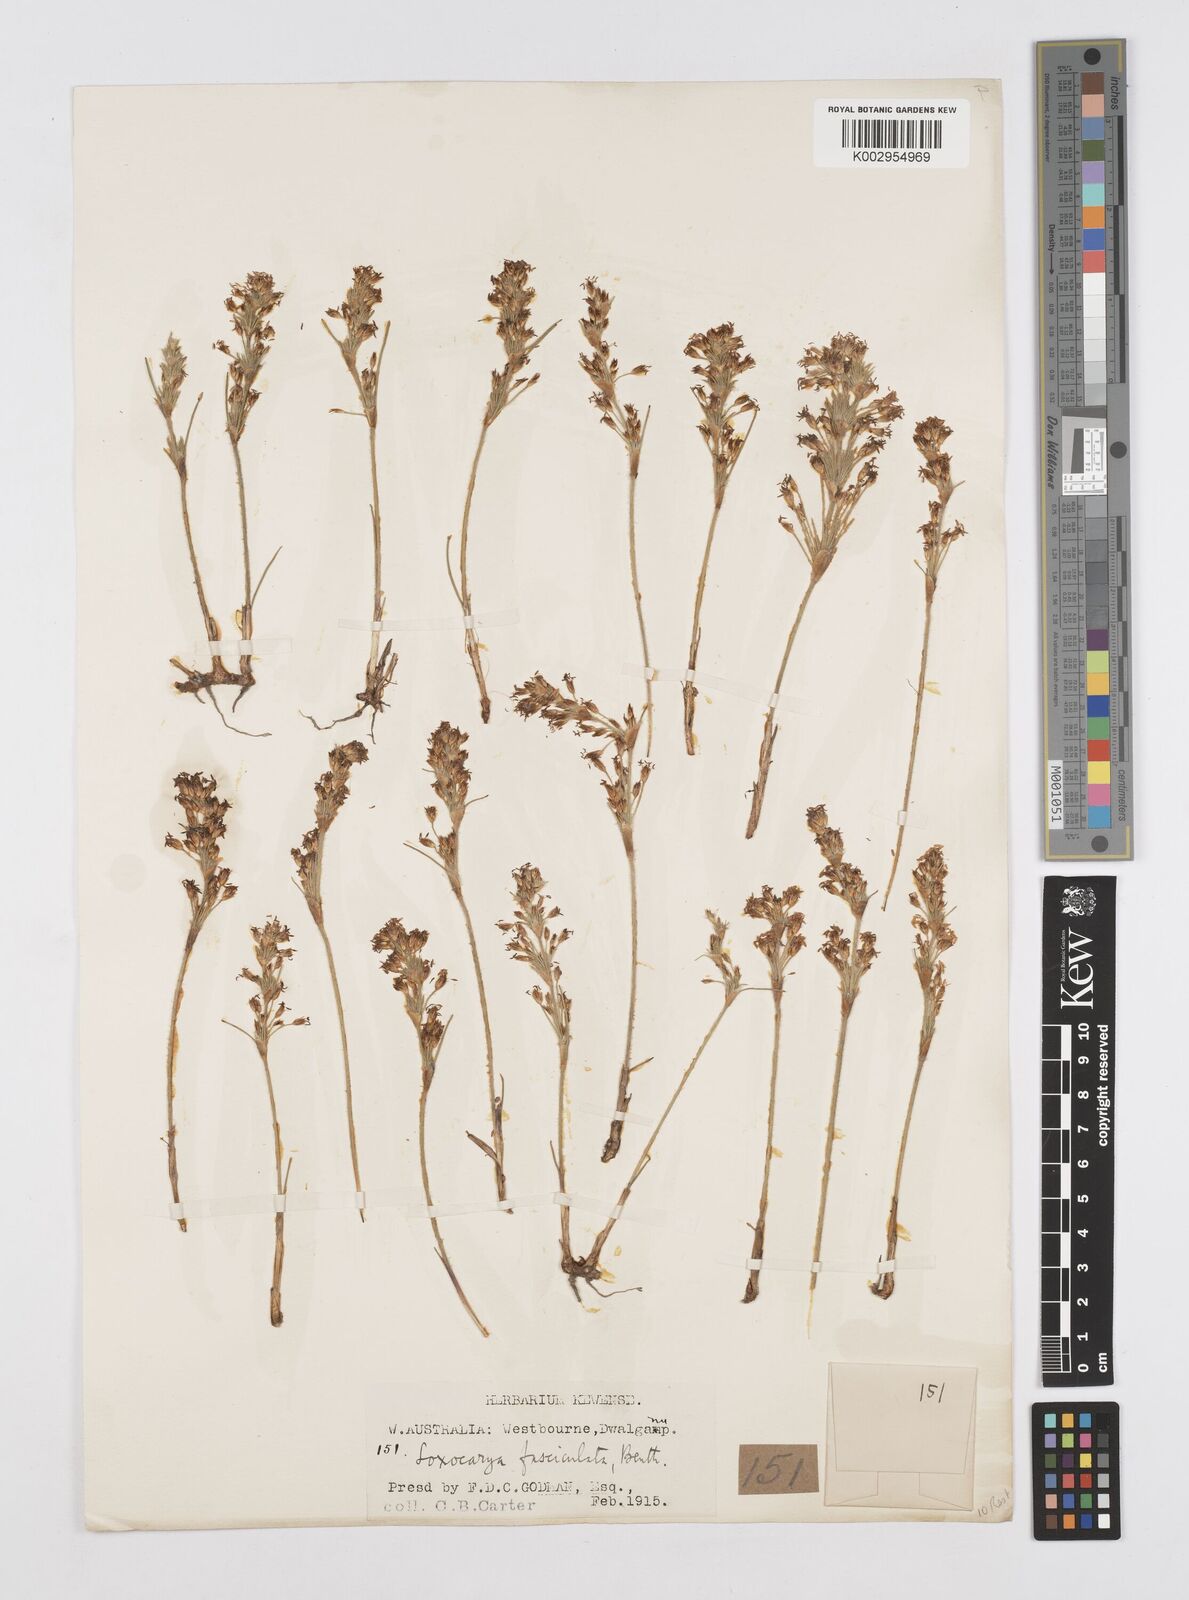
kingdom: Plantae
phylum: Tracheophyta
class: Liliopsida
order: Poales
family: Restionaceae
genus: Desmocladus
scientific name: Desmocladus fasciculatus
